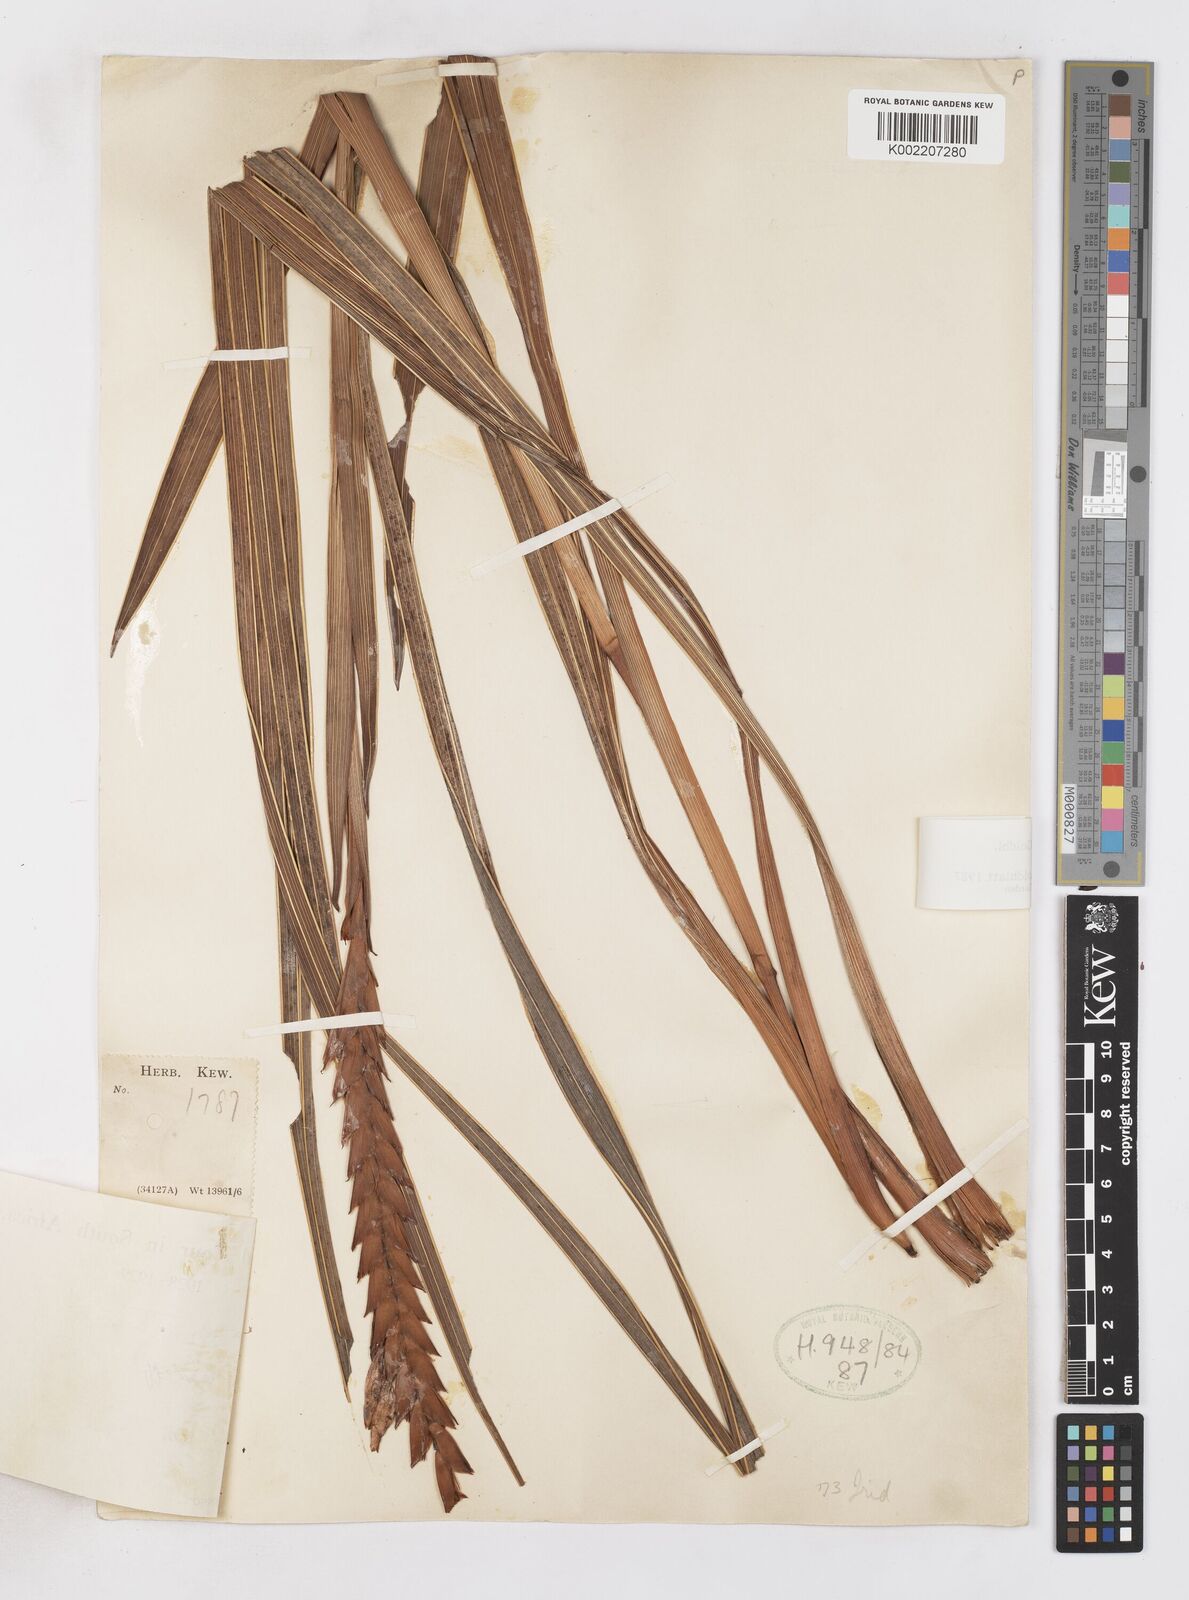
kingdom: Plantae
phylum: Tracheophyta
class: Liliopsida
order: Asparagales
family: Iridaceae
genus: Watsonia
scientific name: Watsonia confusa
